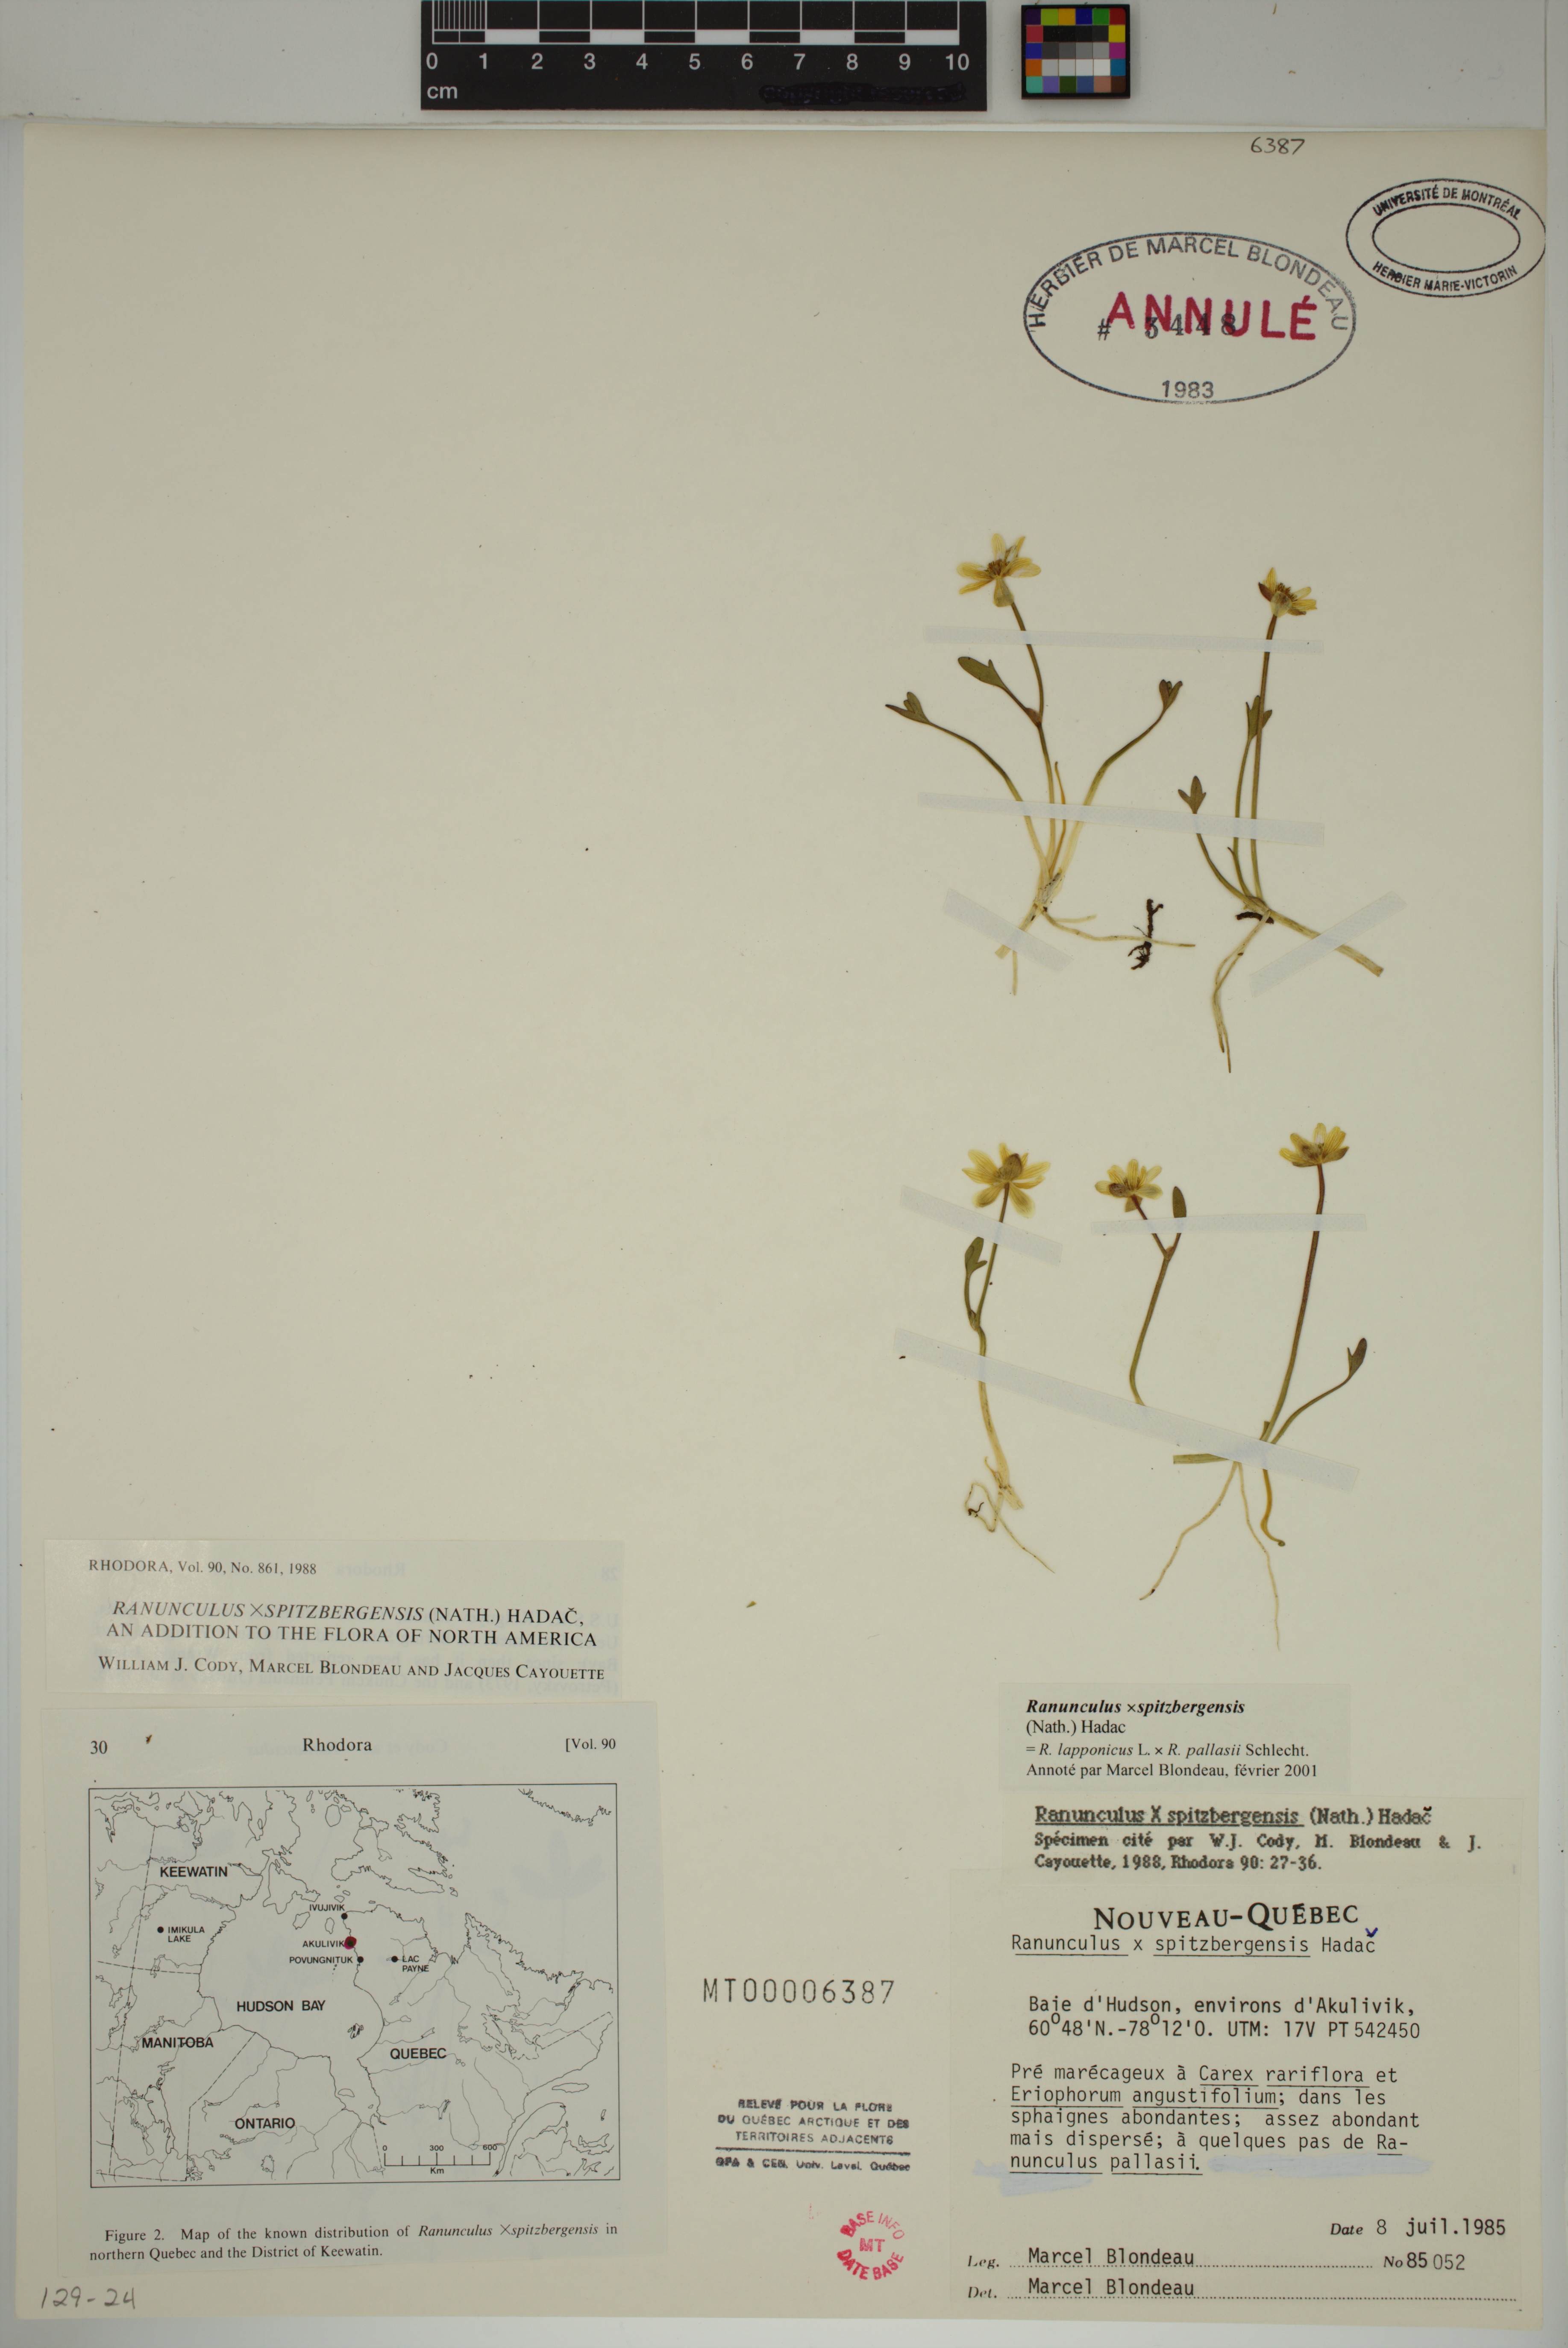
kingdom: Plantae
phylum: Tracheophyta
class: Magnoliopsida
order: Ranunculales
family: Ranunculaceae
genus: Coptidium
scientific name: Coptidium spitsbergense
